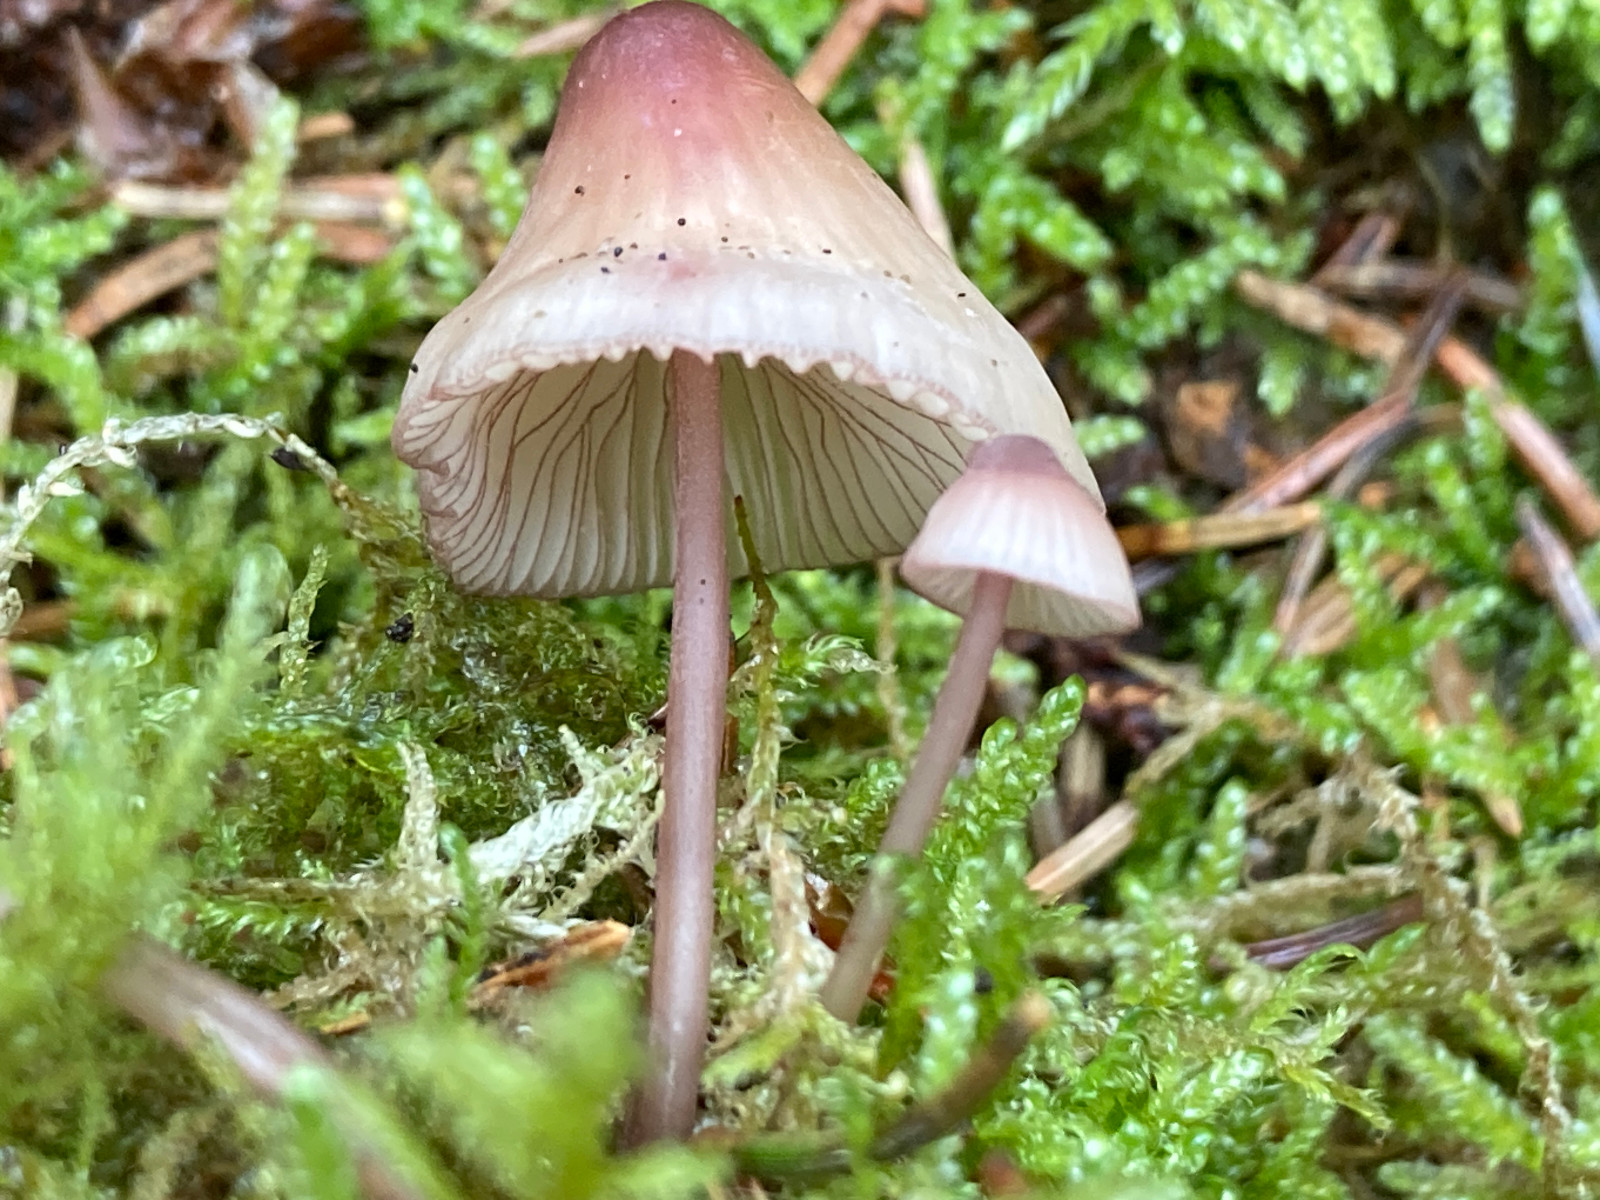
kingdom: Fungi
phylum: Basidiomycota
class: Agaricomycetes
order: Agaricales
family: Mycenaceae
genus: Mycena
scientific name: Mycena
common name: huesvamp
